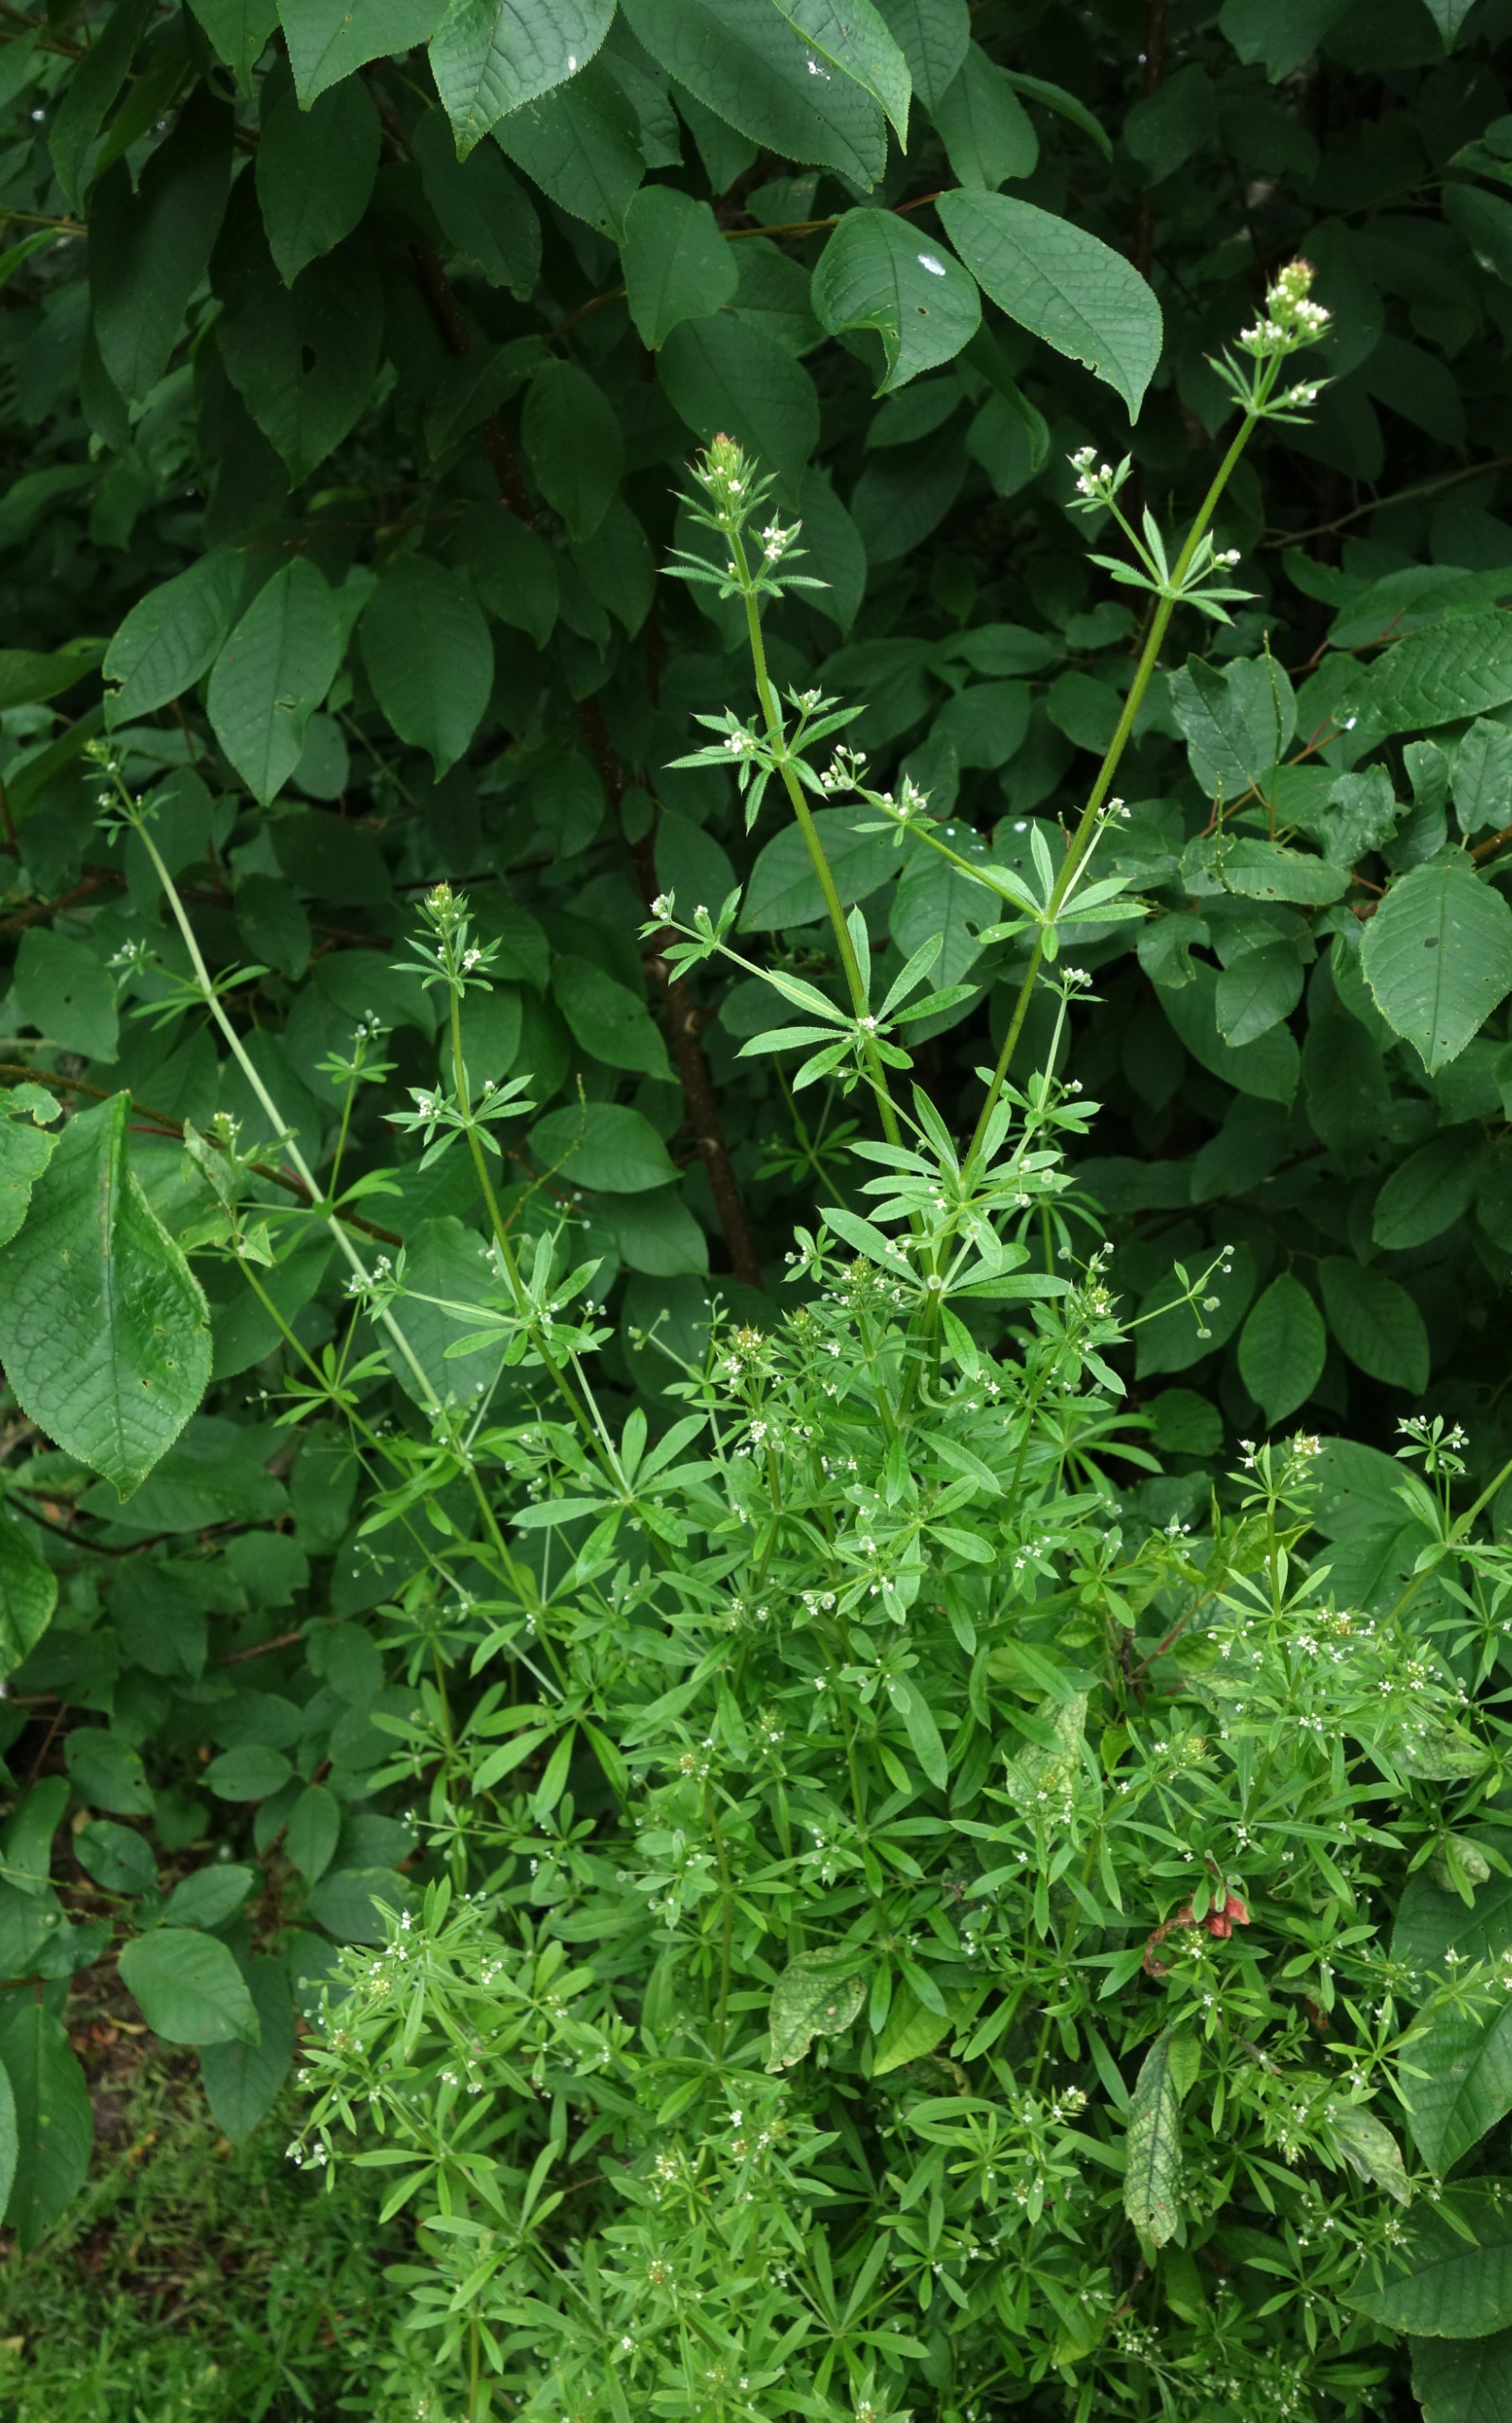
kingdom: Plantae
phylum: Tracheophyta
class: Magnoliopsida
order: Gentianales
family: Rubiaceae
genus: Galium
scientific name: Galium aparine
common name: Burre-snerre
